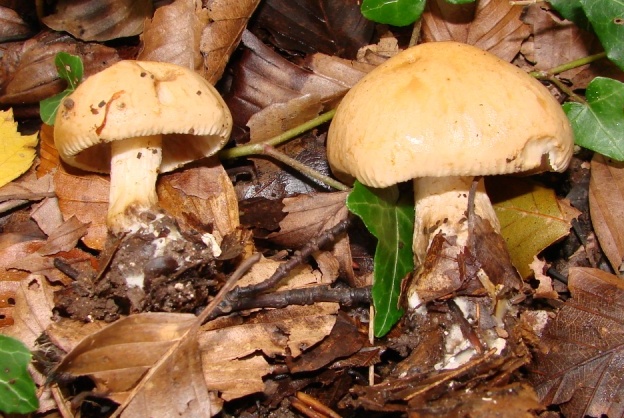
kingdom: Fungi
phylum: Basidiomycota
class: Agaricomycetes
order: Agaricales
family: Hymenogastraceae
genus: Hebeloma
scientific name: Hebeloma laterinum
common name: kakao-tåreblad
